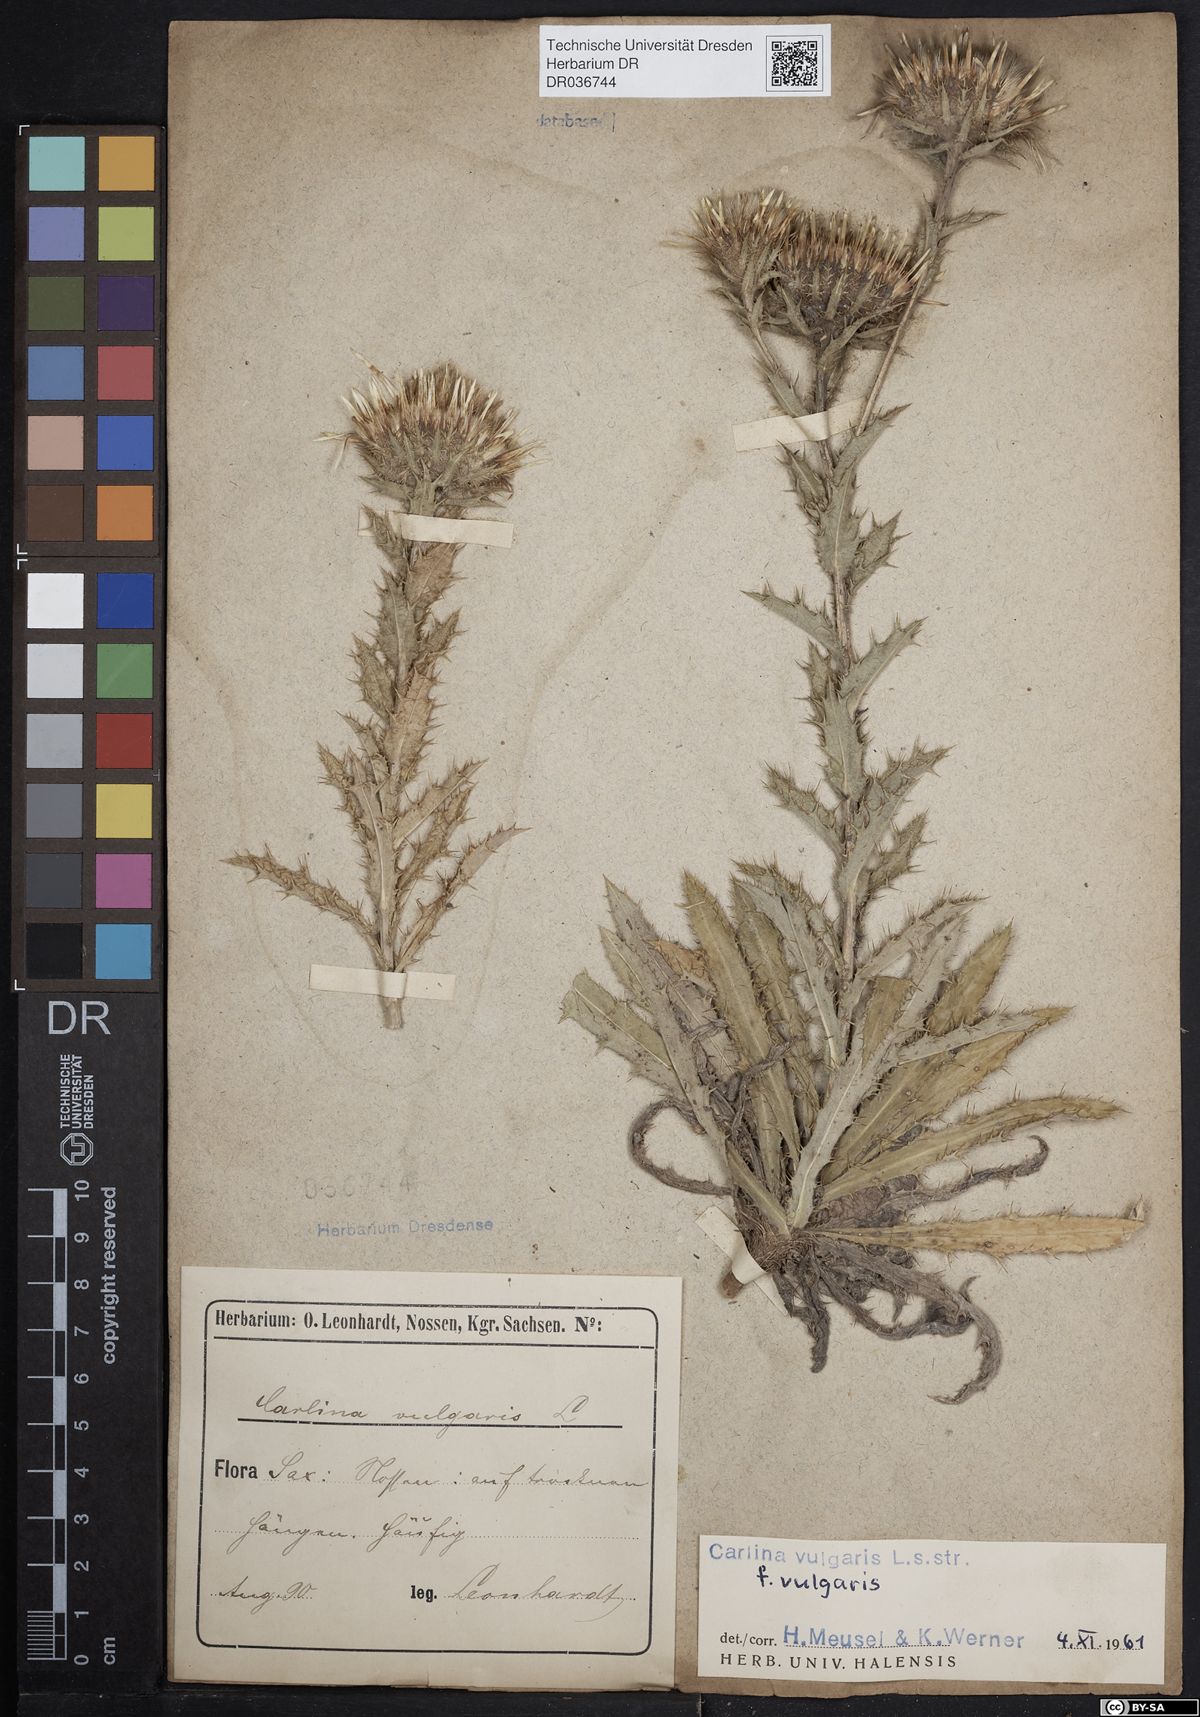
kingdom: Plantae
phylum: Tracheophyta
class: Magnoliopsida
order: Asterales
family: Asteraceae
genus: Carlina
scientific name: Carlina vulgaris
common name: Carline thistle
